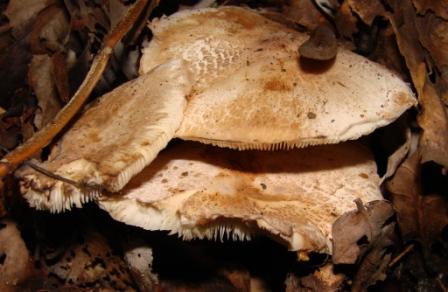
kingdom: Fungi
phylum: Basidiomycota
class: Agaricomycetes
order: Agaricales
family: Agaricaceae
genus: Leucoagaricus
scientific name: Leucoagaricus badhamii
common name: rødmende silkehat
